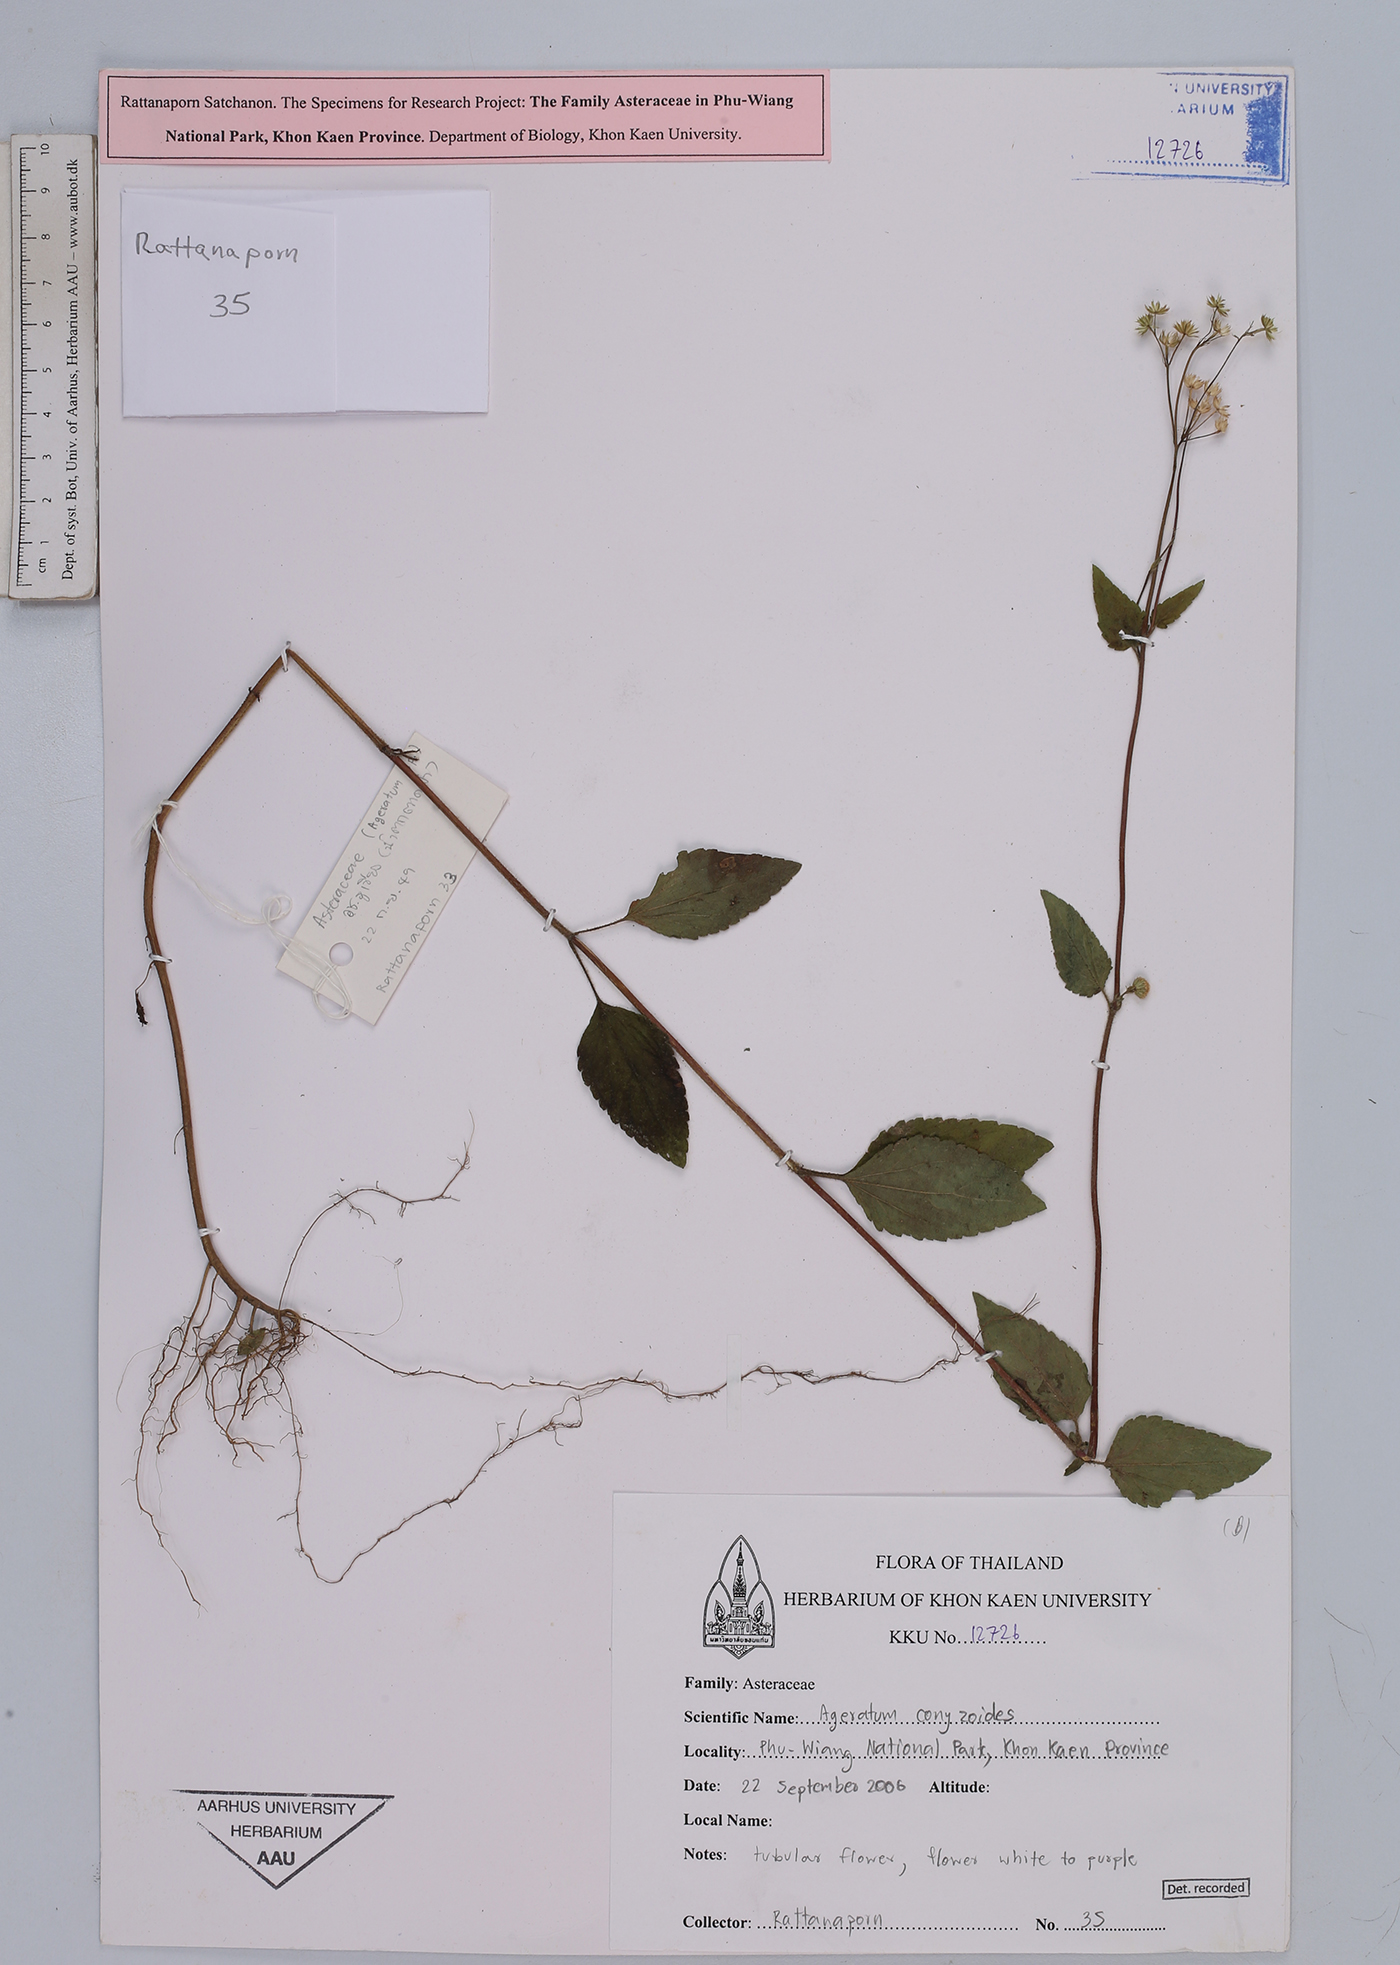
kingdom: Plantae
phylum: Tracheophyta
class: Magnoliopsida
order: Asterales
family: Asteraceae
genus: Ageratum
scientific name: Ageratum conyzoides
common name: Tropical whiteweed
